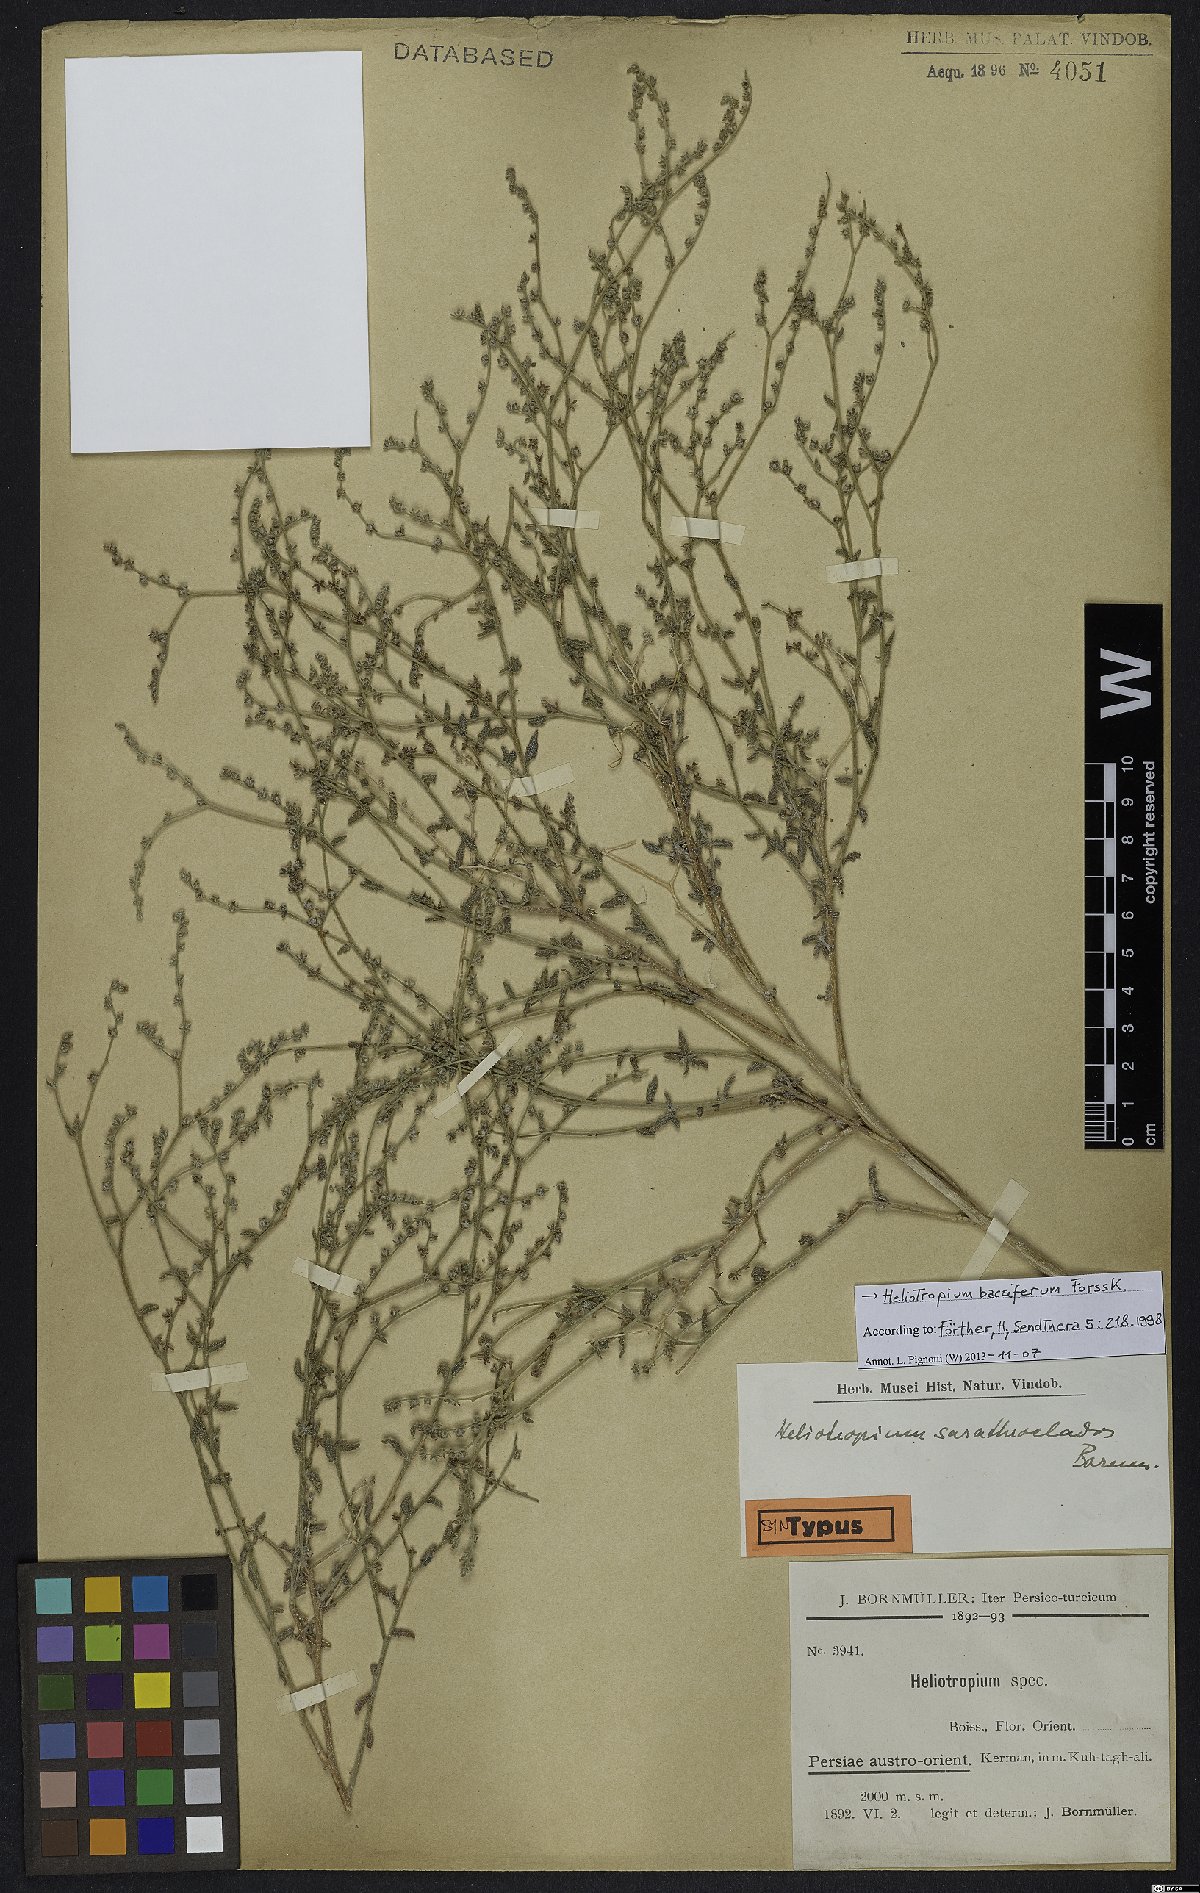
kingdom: Plantae
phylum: Tracheophyta
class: Magnoliopsida
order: Boraginales
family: Heliotropiaceae
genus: Heliotropium
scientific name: Heliotropium bacciferum
